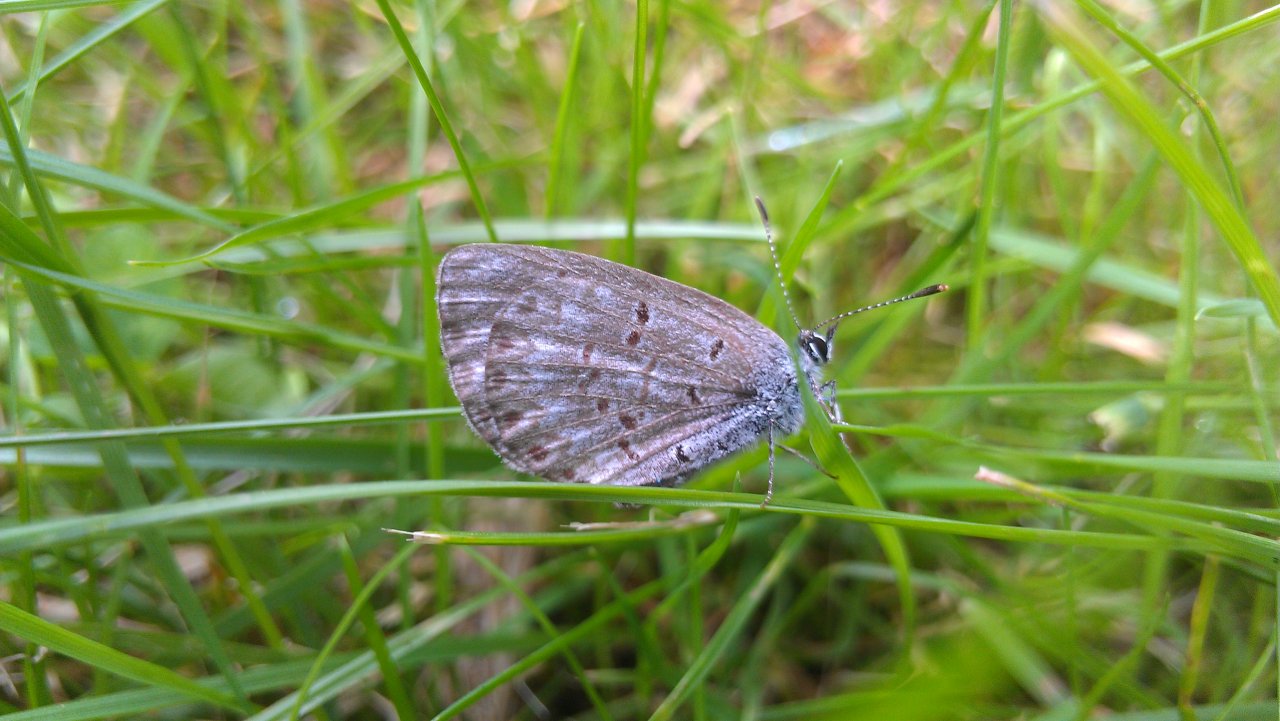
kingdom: Animalia
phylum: Arthropoda
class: Insecta
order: Lepidoptera
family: Lycaenidae
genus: Celastrina
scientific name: Celastrina lucia
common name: Northern Spring Azure
